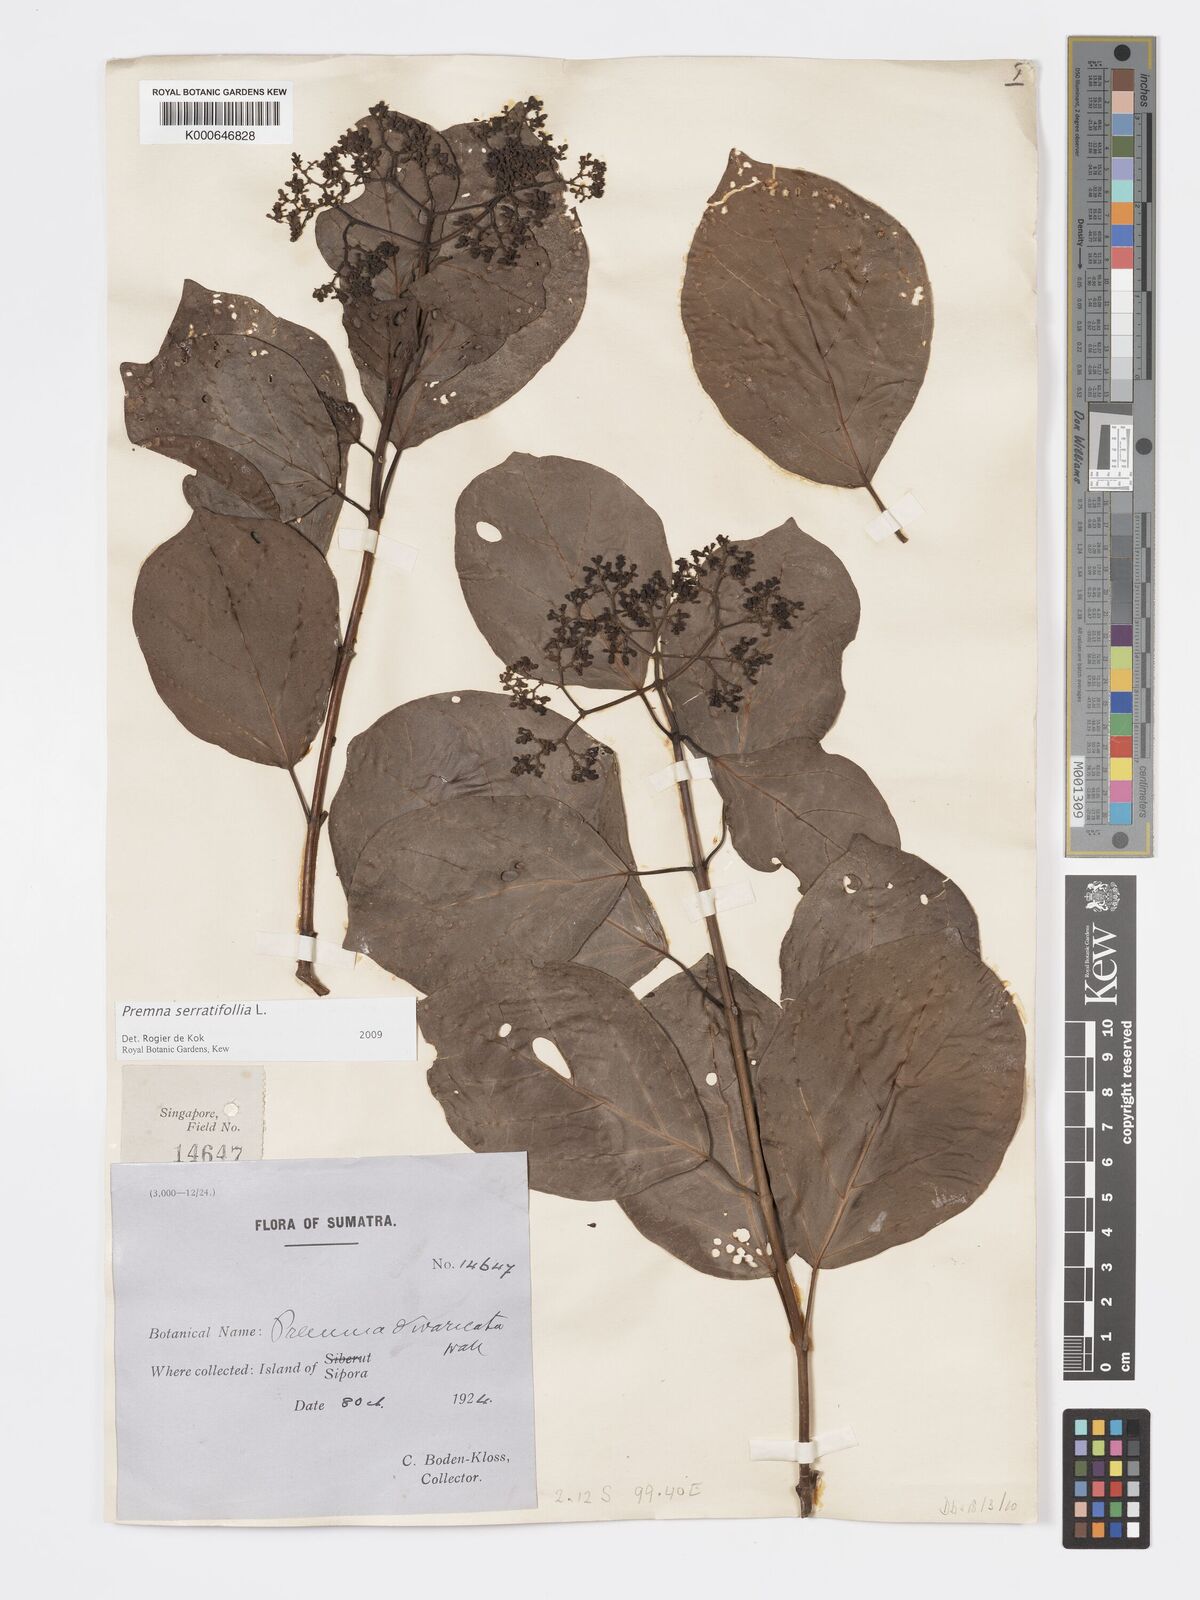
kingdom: Plantae
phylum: Tracheophyta
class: Magnoliopsida
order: Lamiales
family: Lamiaceae
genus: Premna
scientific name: Premna serratifolia
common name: Bastard guelder
